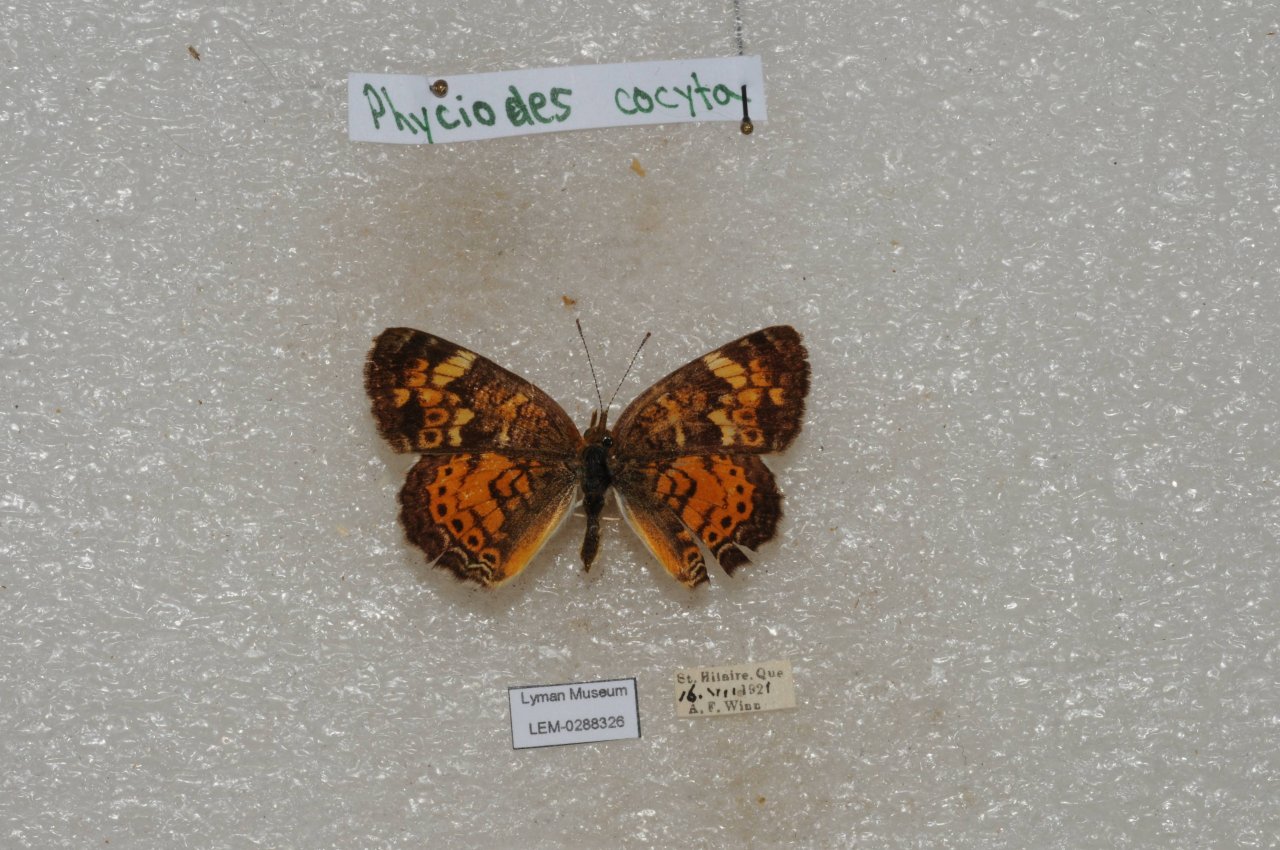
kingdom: Animalia
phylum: Arthropoda
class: Insecta
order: Lepidoptera
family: Nymphalidae
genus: Phyciodes
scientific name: Phyciodes tharos
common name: Northern Crescent
